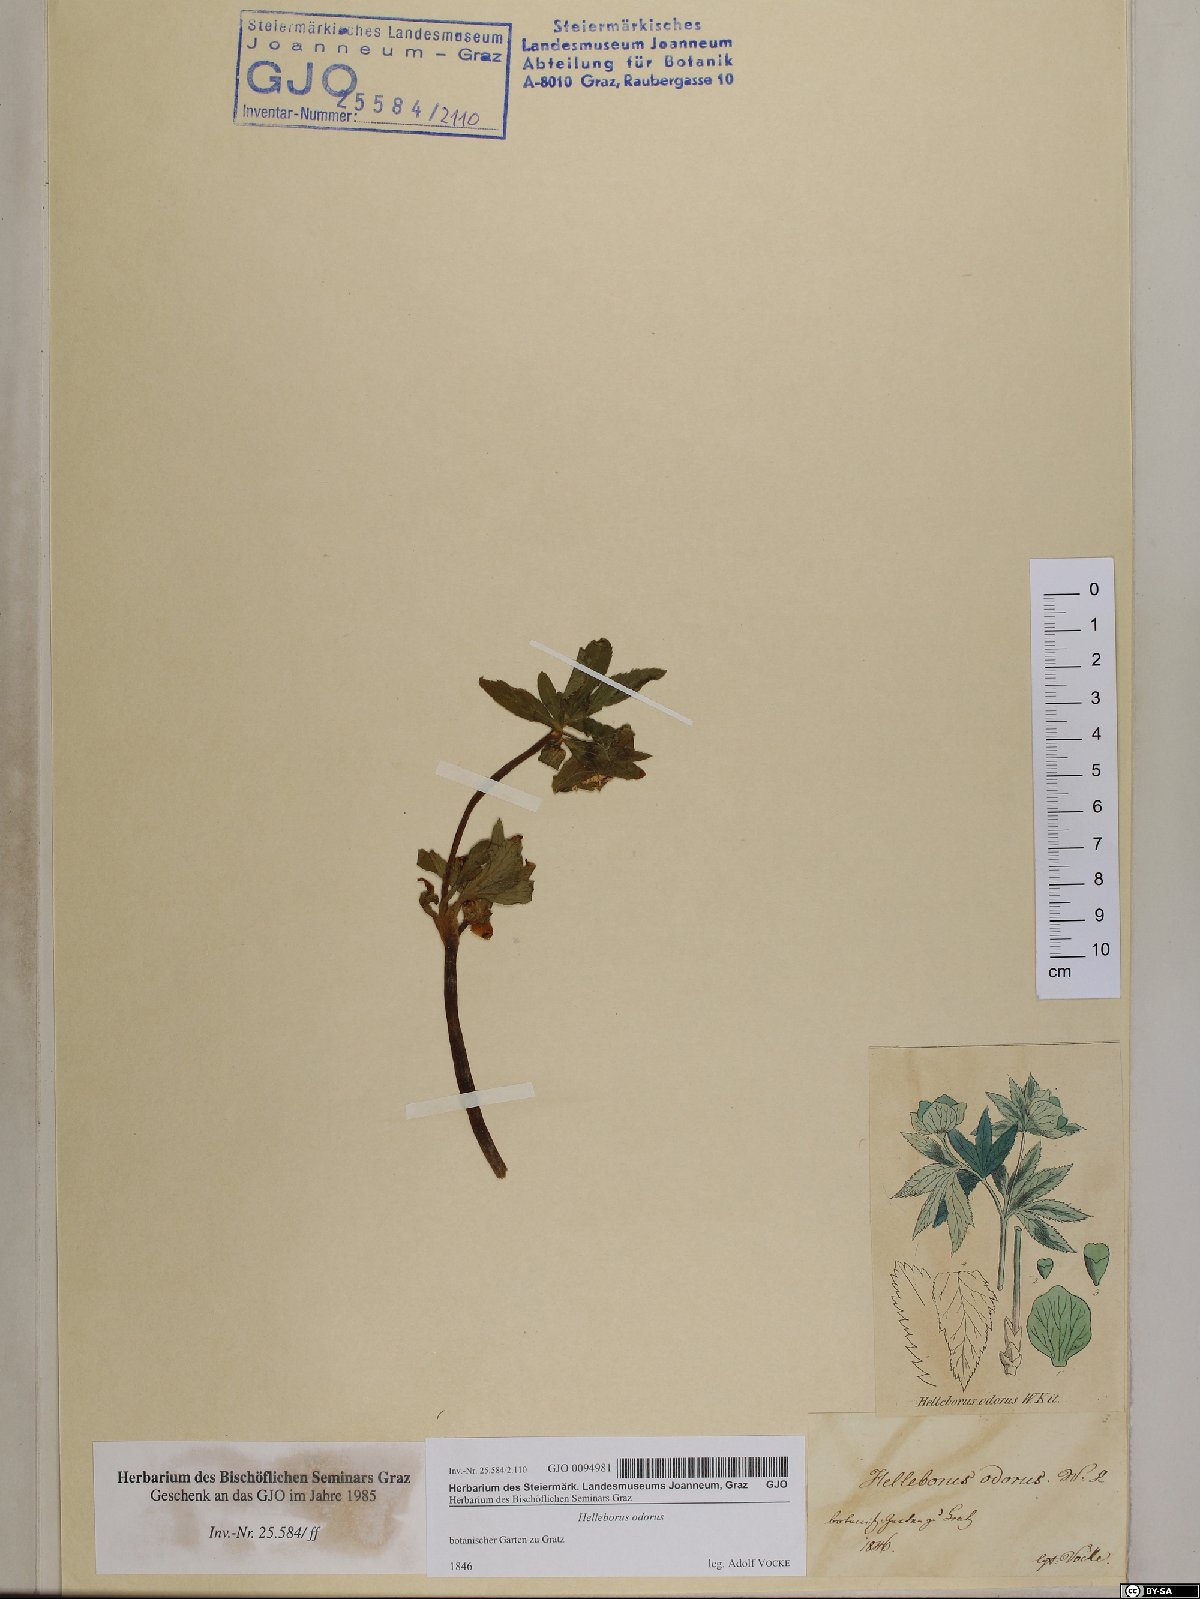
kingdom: Plantae
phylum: Tracheophyta
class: Magnoliopsida
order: Ranunculales
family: Ranunculaceae
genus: Helleborus
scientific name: Helleborus odorus
